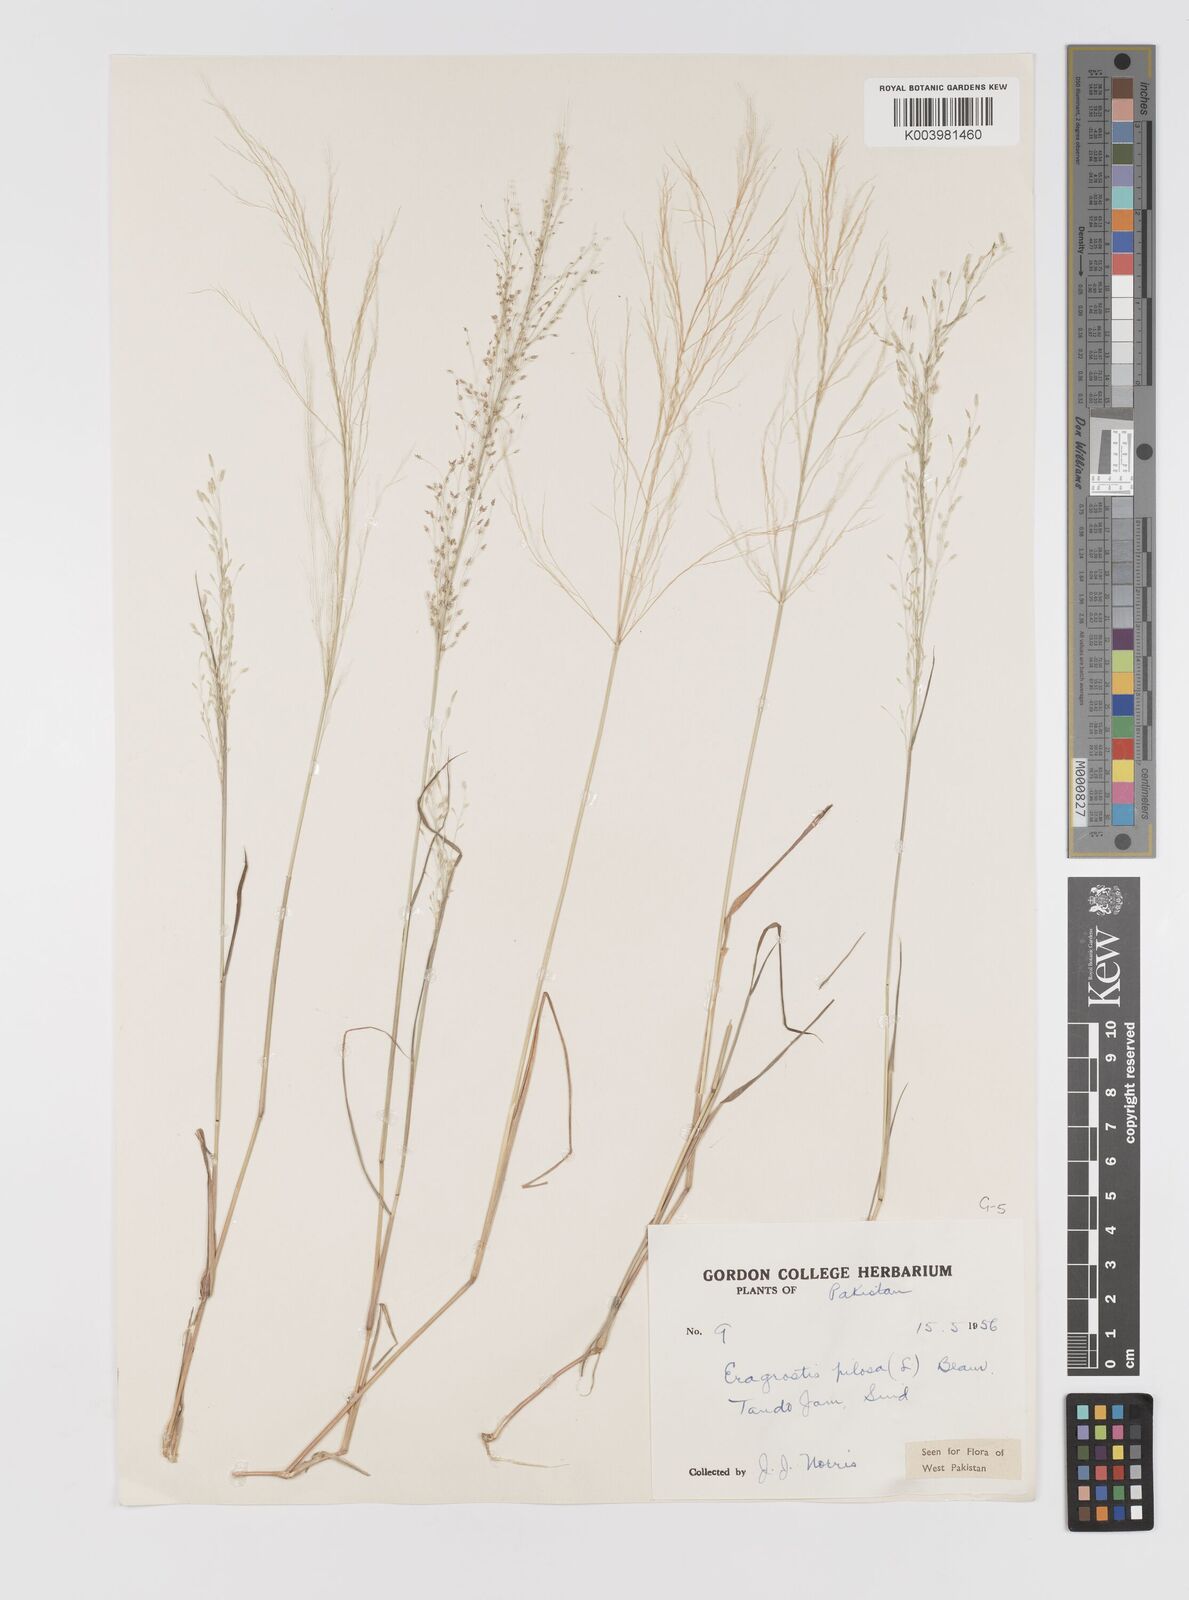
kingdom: Plantae
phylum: Tracheophyta
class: Liliopsida
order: Poales
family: Poaceae
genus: Eragrostis
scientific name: Eragrostis pilosa
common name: Indian lovegrass
